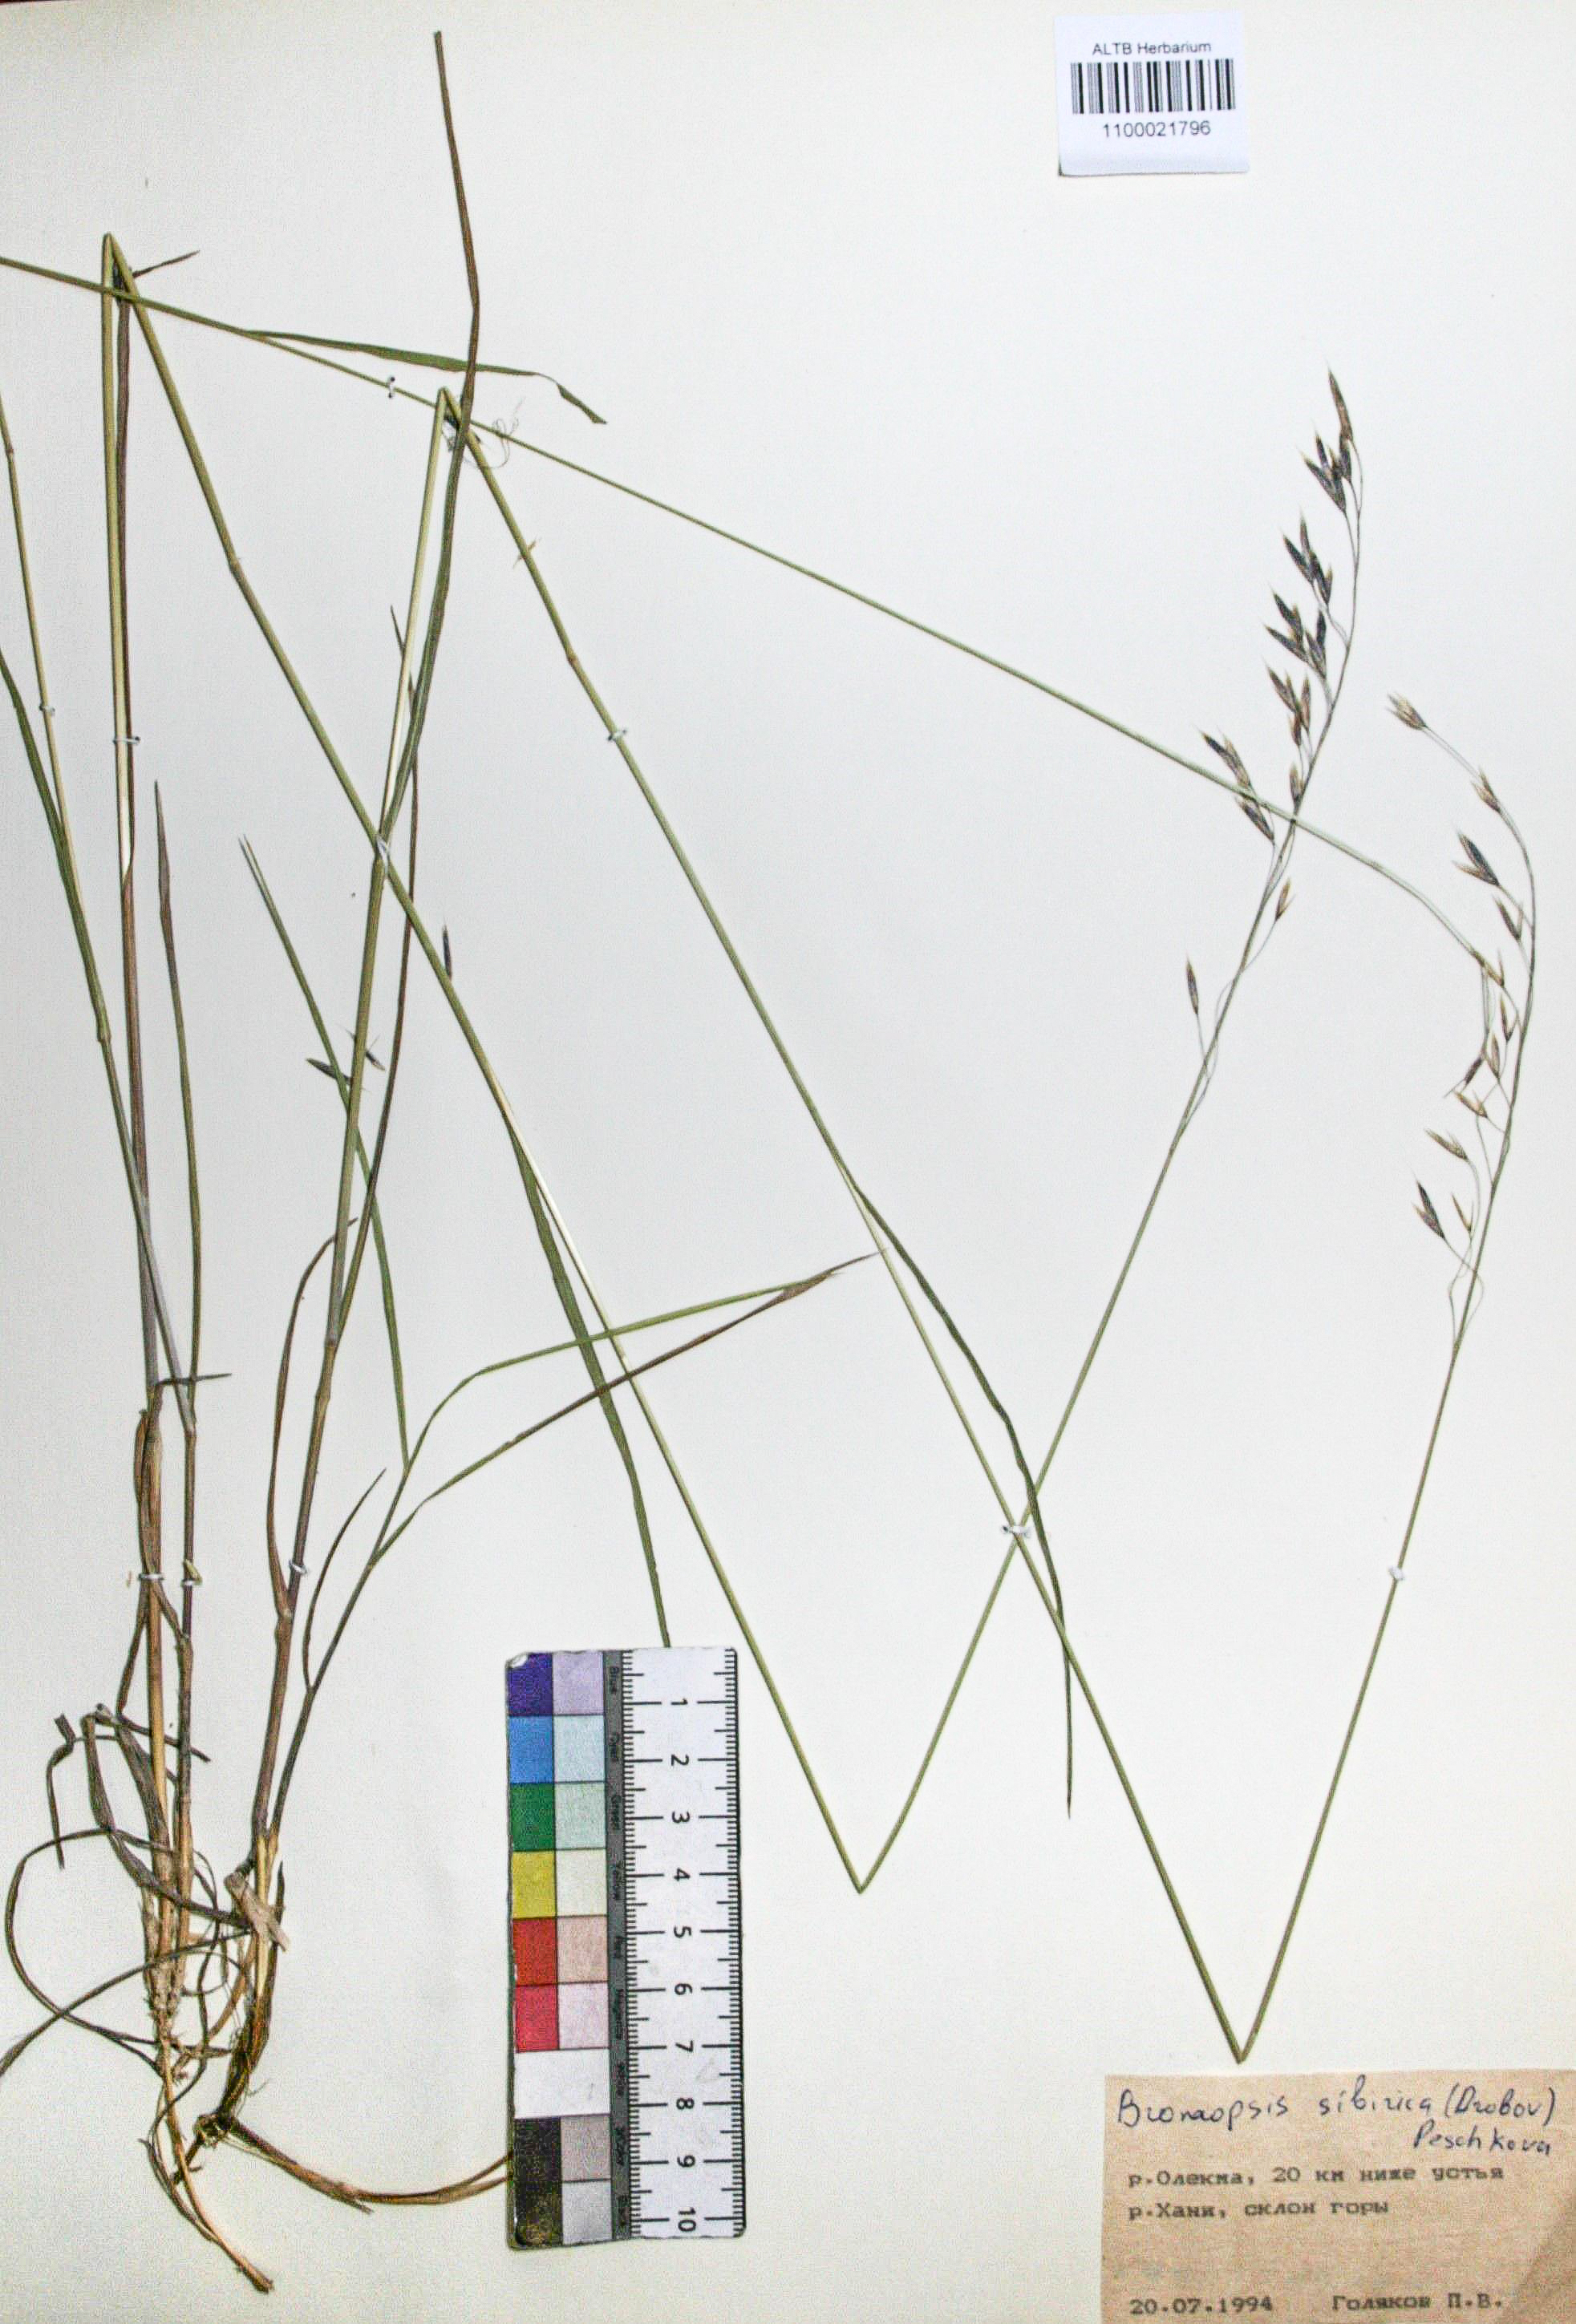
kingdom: Plantae
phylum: Tracheophyta
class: Liliopsida
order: Poales
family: Poaceae
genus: Bromus
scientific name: Bromus pumpellianus
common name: Pumpelly's brome
